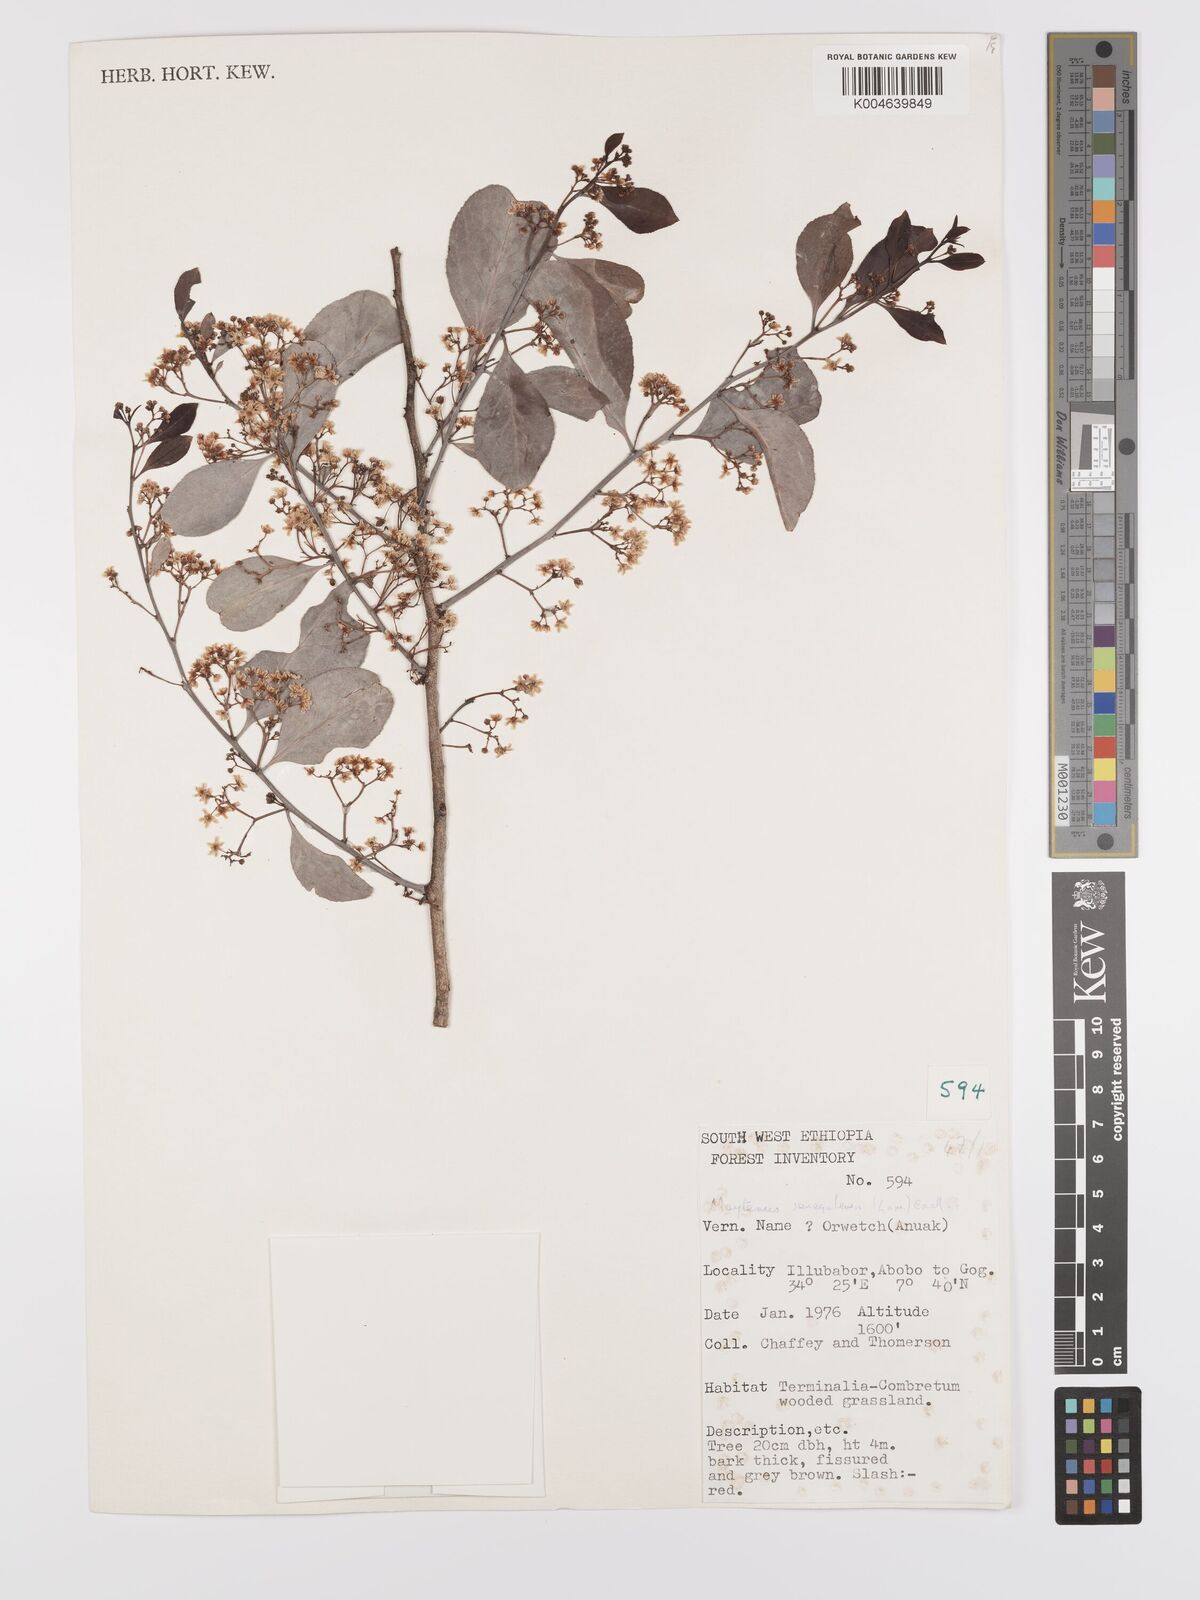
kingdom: Plantae
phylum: Tracheophyta
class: Magnoliopsida
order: Celastrales
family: Celastraceae
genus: Gymnosporia
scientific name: Gymnosporia senegalensis
